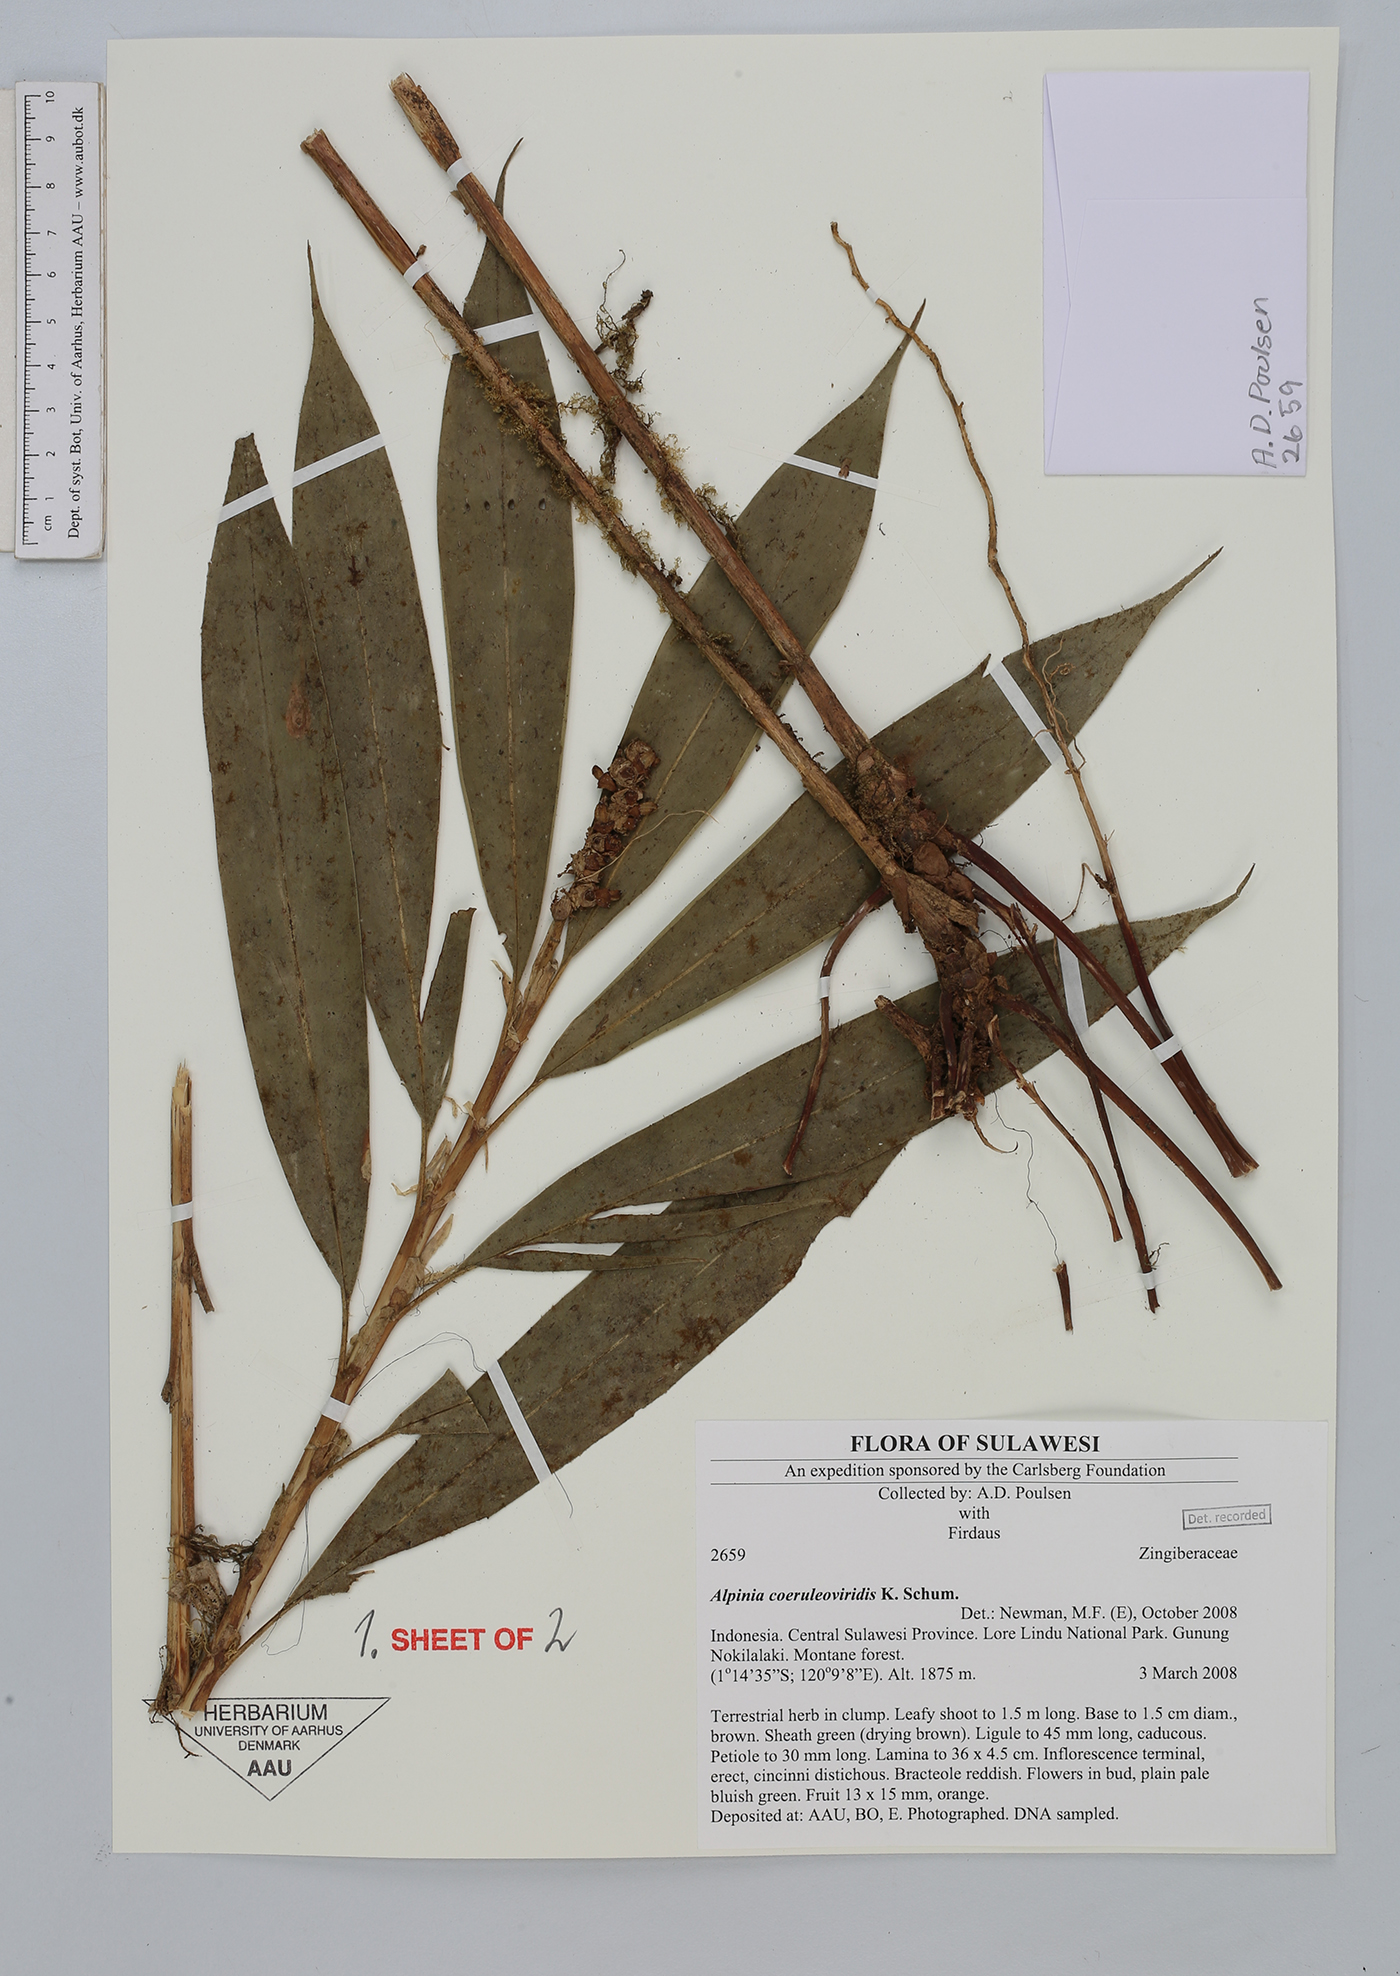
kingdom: Plantae
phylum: Tracheophyta
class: Liliopsida
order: Zingiberales
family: Zingiberaceae
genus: Alpinia
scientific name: Alpinia coeruleoviridis
